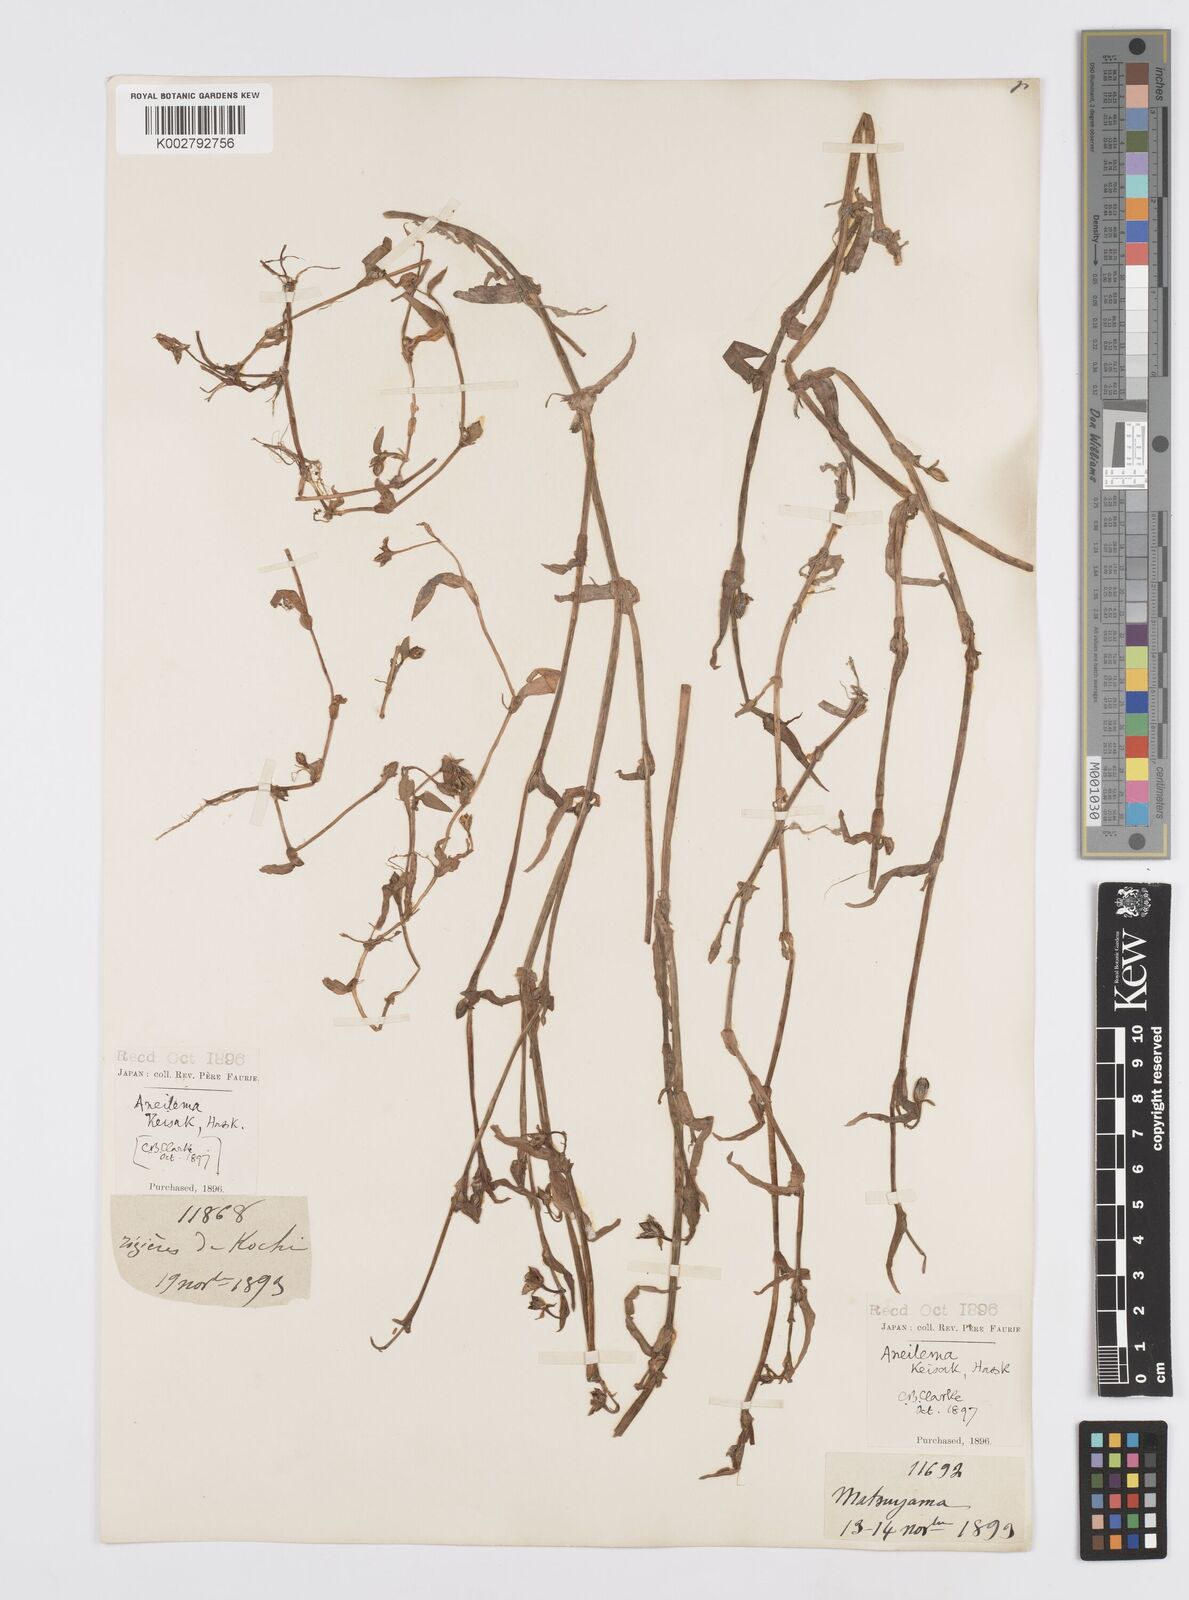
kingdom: Plantae
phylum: Tracheophyta
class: Liliopsida
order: Commelinales
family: Commelinaceae
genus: Murdannia
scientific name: Murdannia keisak
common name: Wartremoving herb
